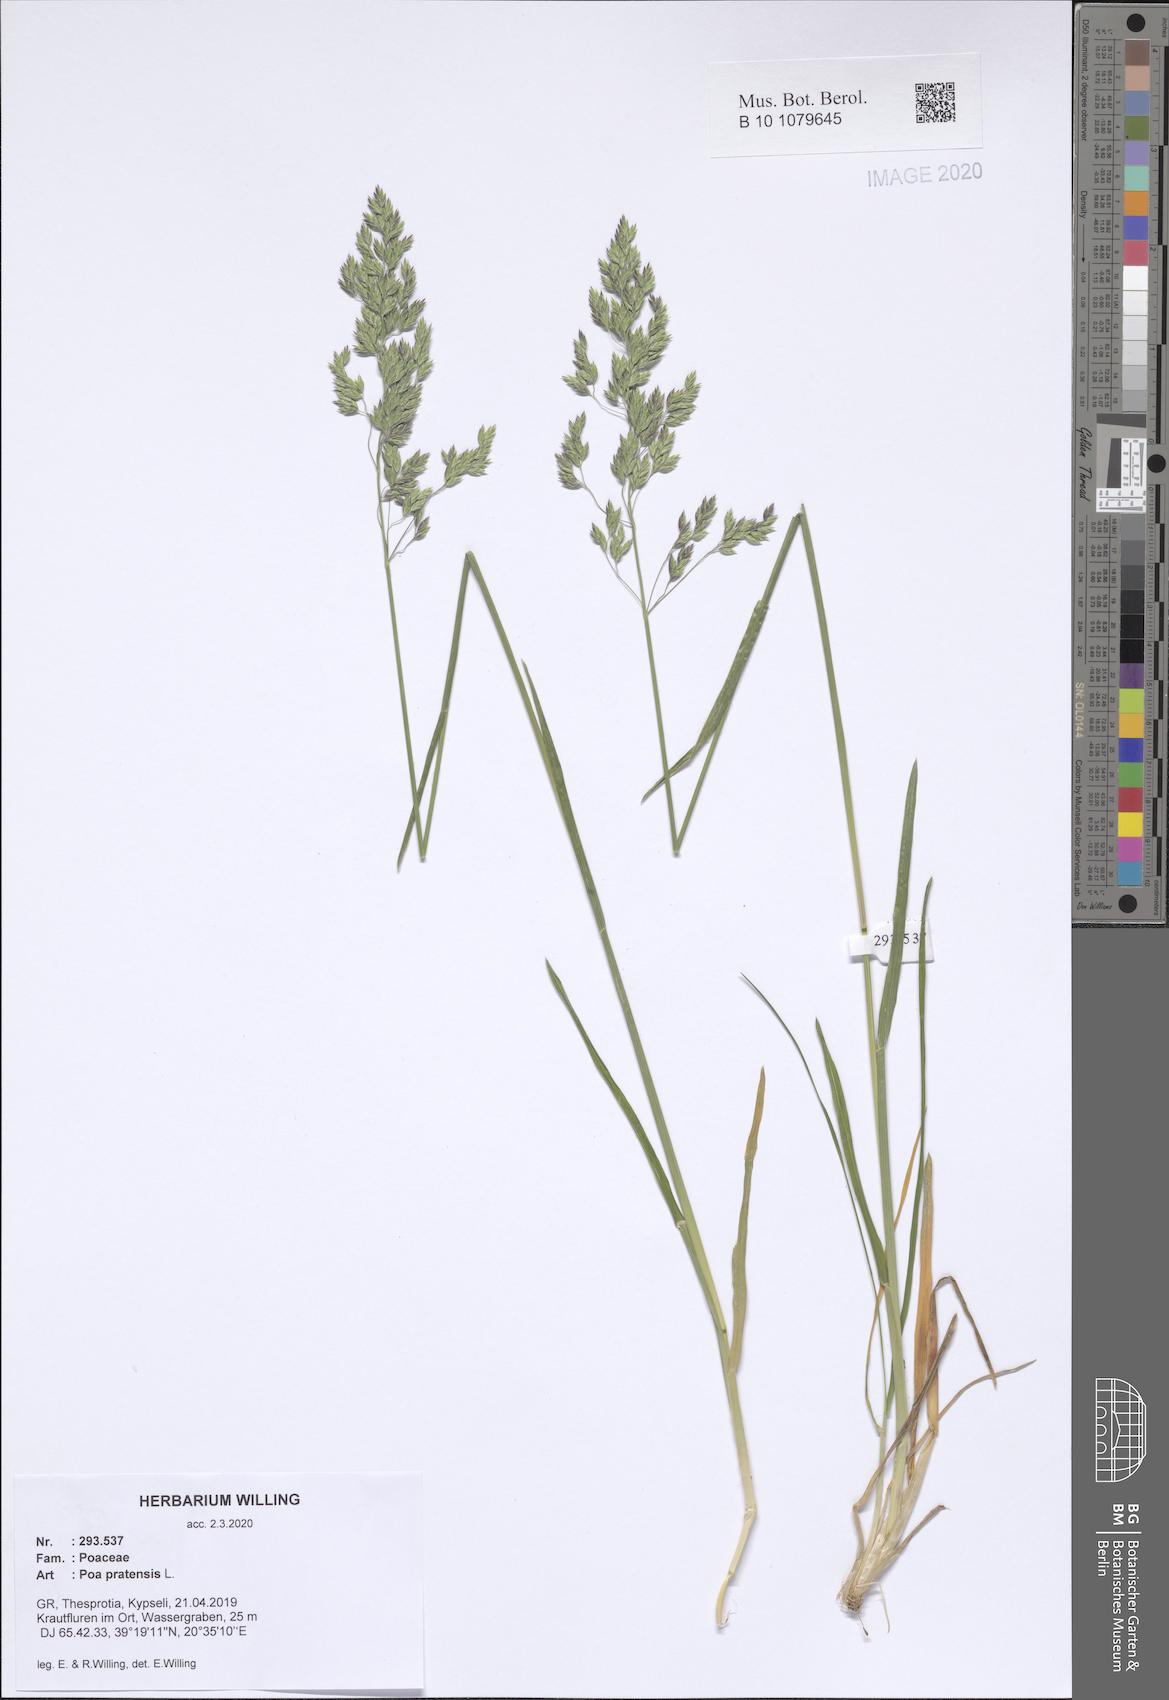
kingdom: Plantae
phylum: Tracheophyta
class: Liliopsida
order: Poales
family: Poaceae
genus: Poa
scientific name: Poa pratensis
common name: Kentucky bluegrass
